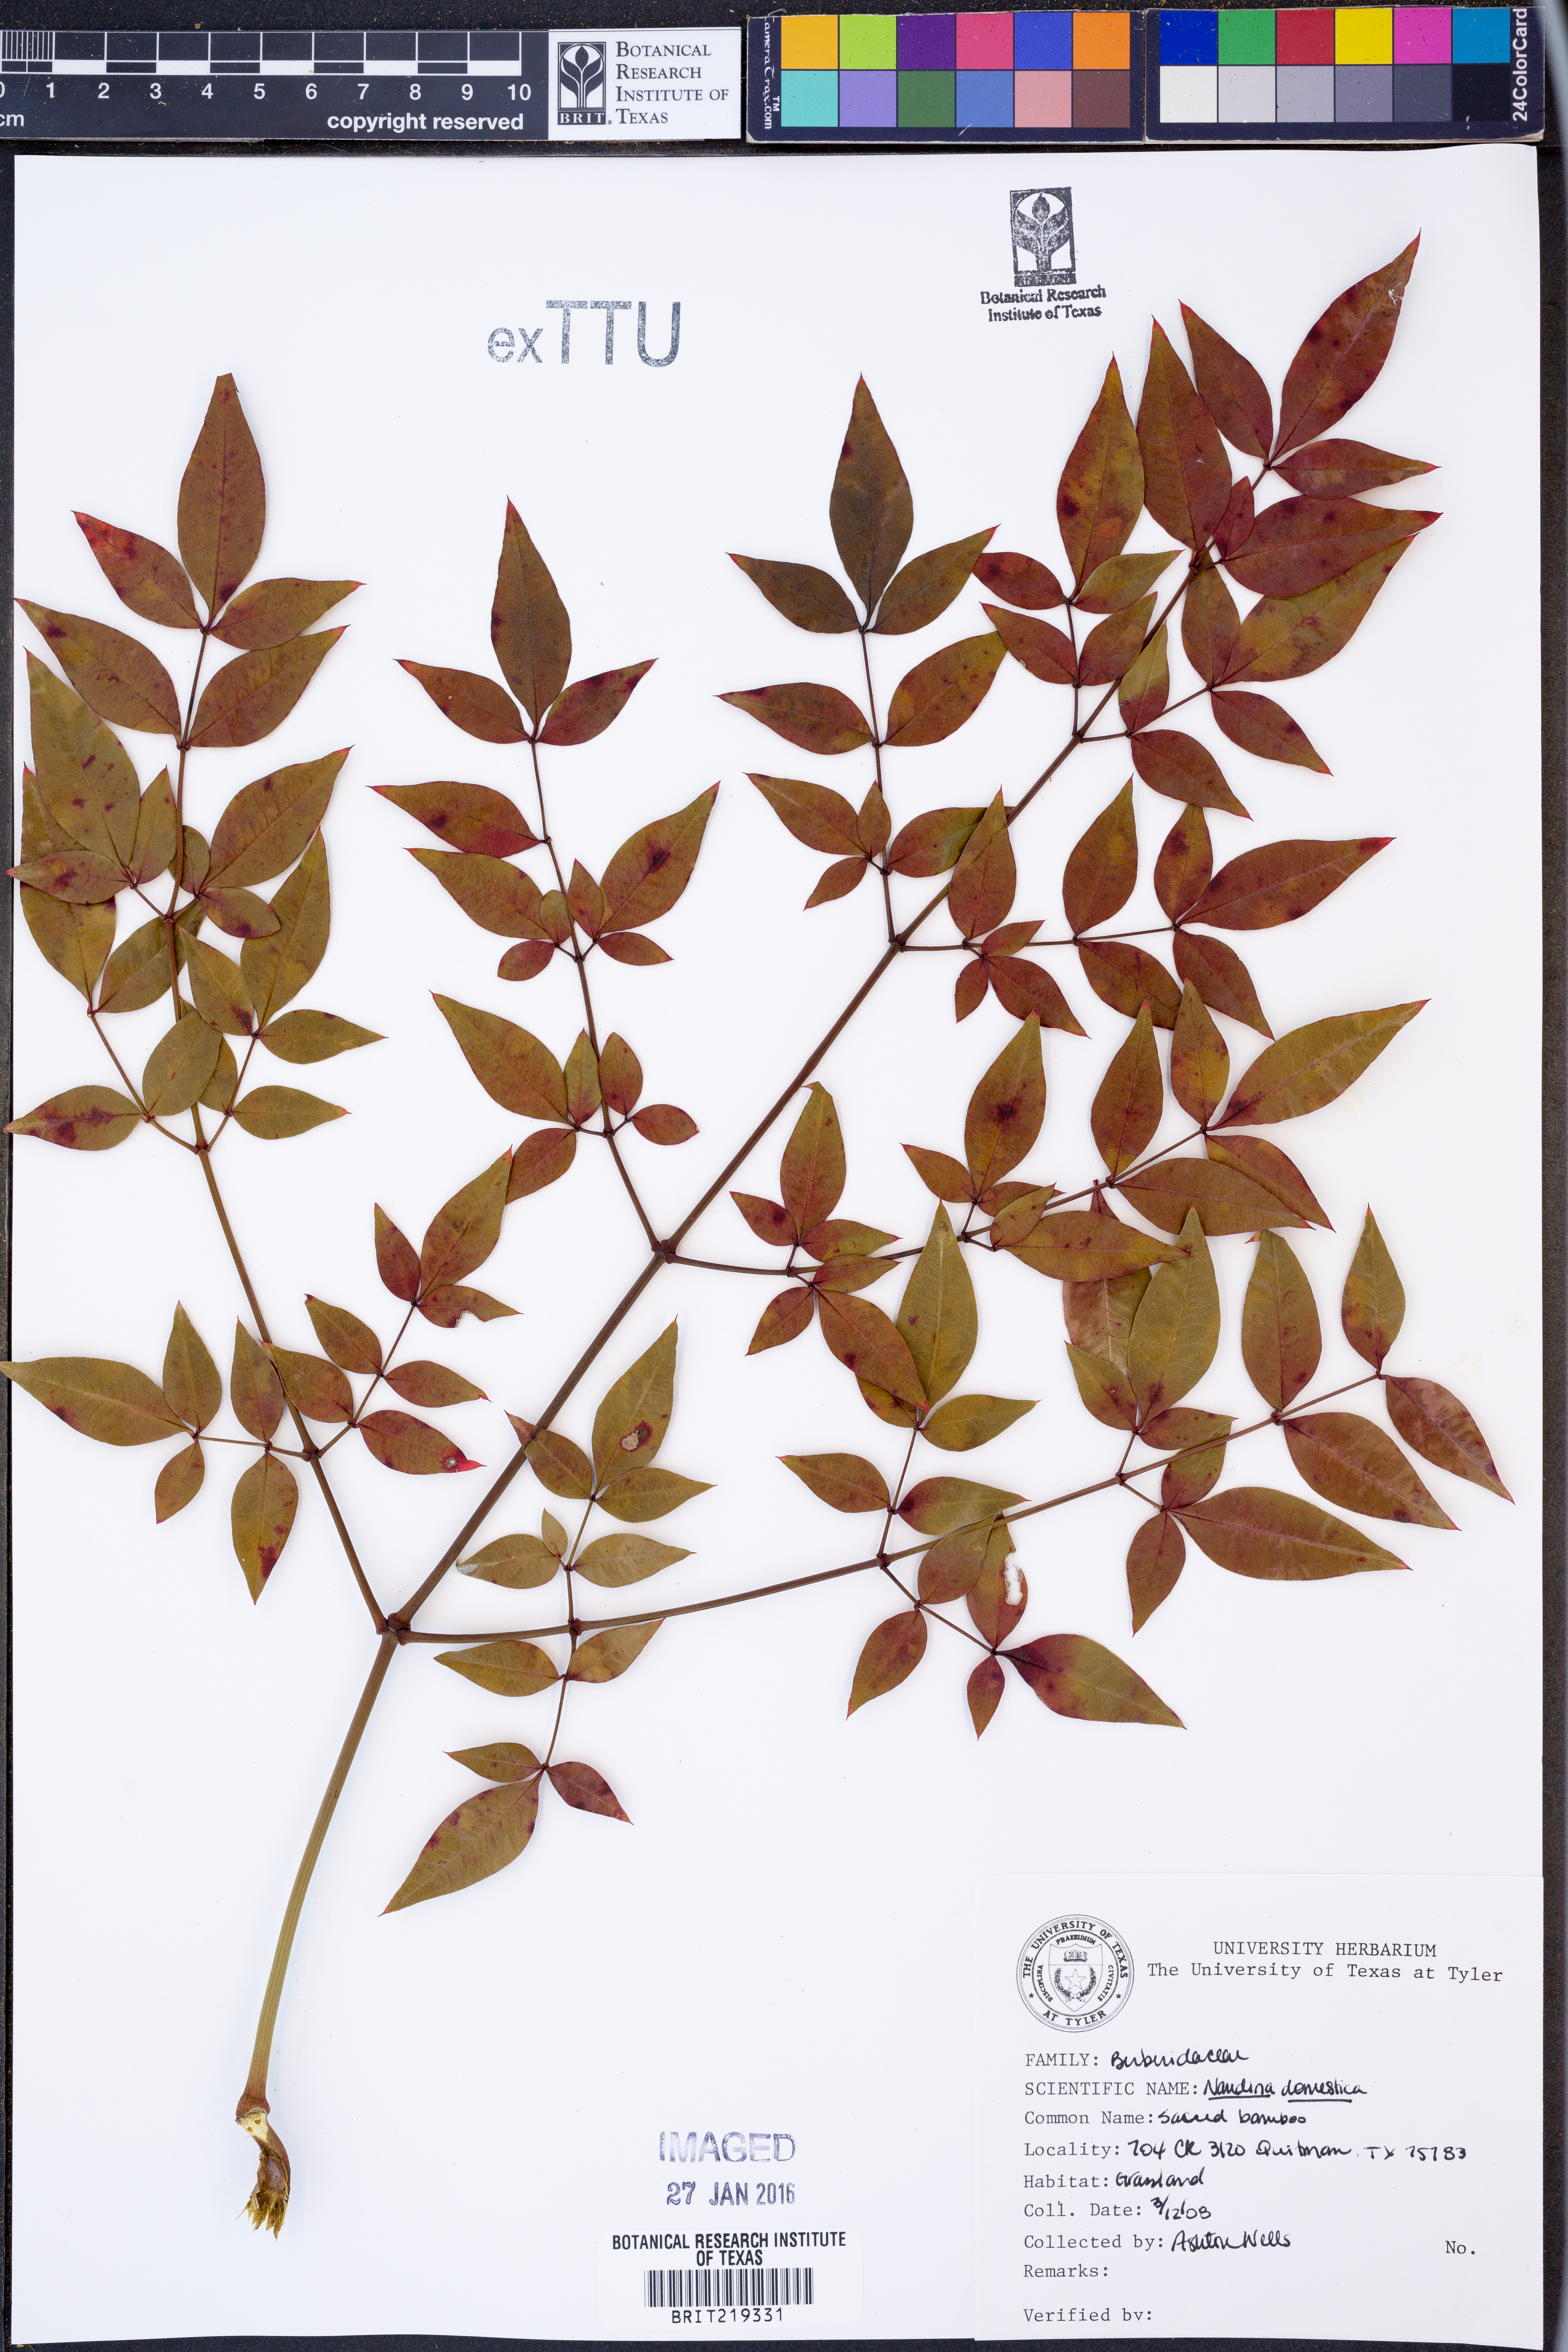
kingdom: Plantae
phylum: Tracheophyta
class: Magnoliopsida
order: Ranunculales
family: Berberidaceae
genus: Nandina
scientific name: Nandina domestica
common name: Sacred bamboo
